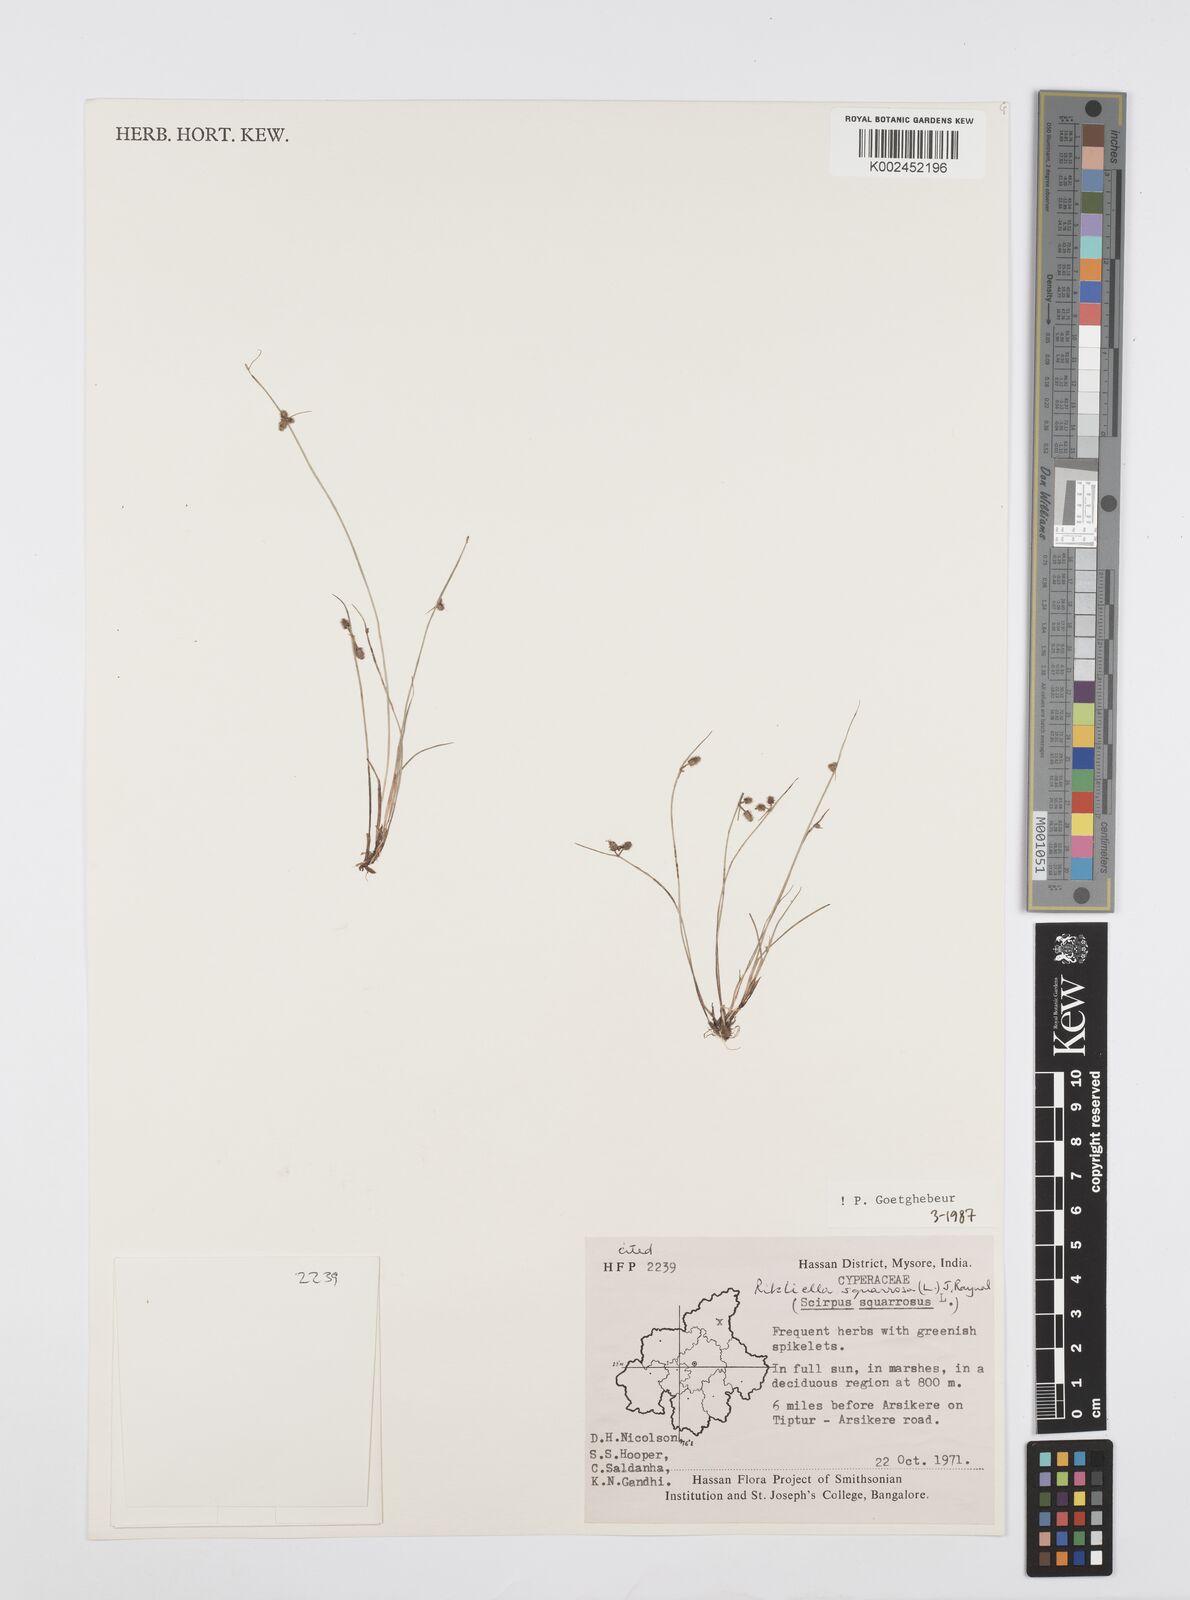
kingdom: Plantae
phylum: Tracheophyta
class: Liliopsida
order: Poales
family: Cyperaceae
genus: Cyperus
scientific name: Cyperus squarrosus
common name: Awned cyperus
